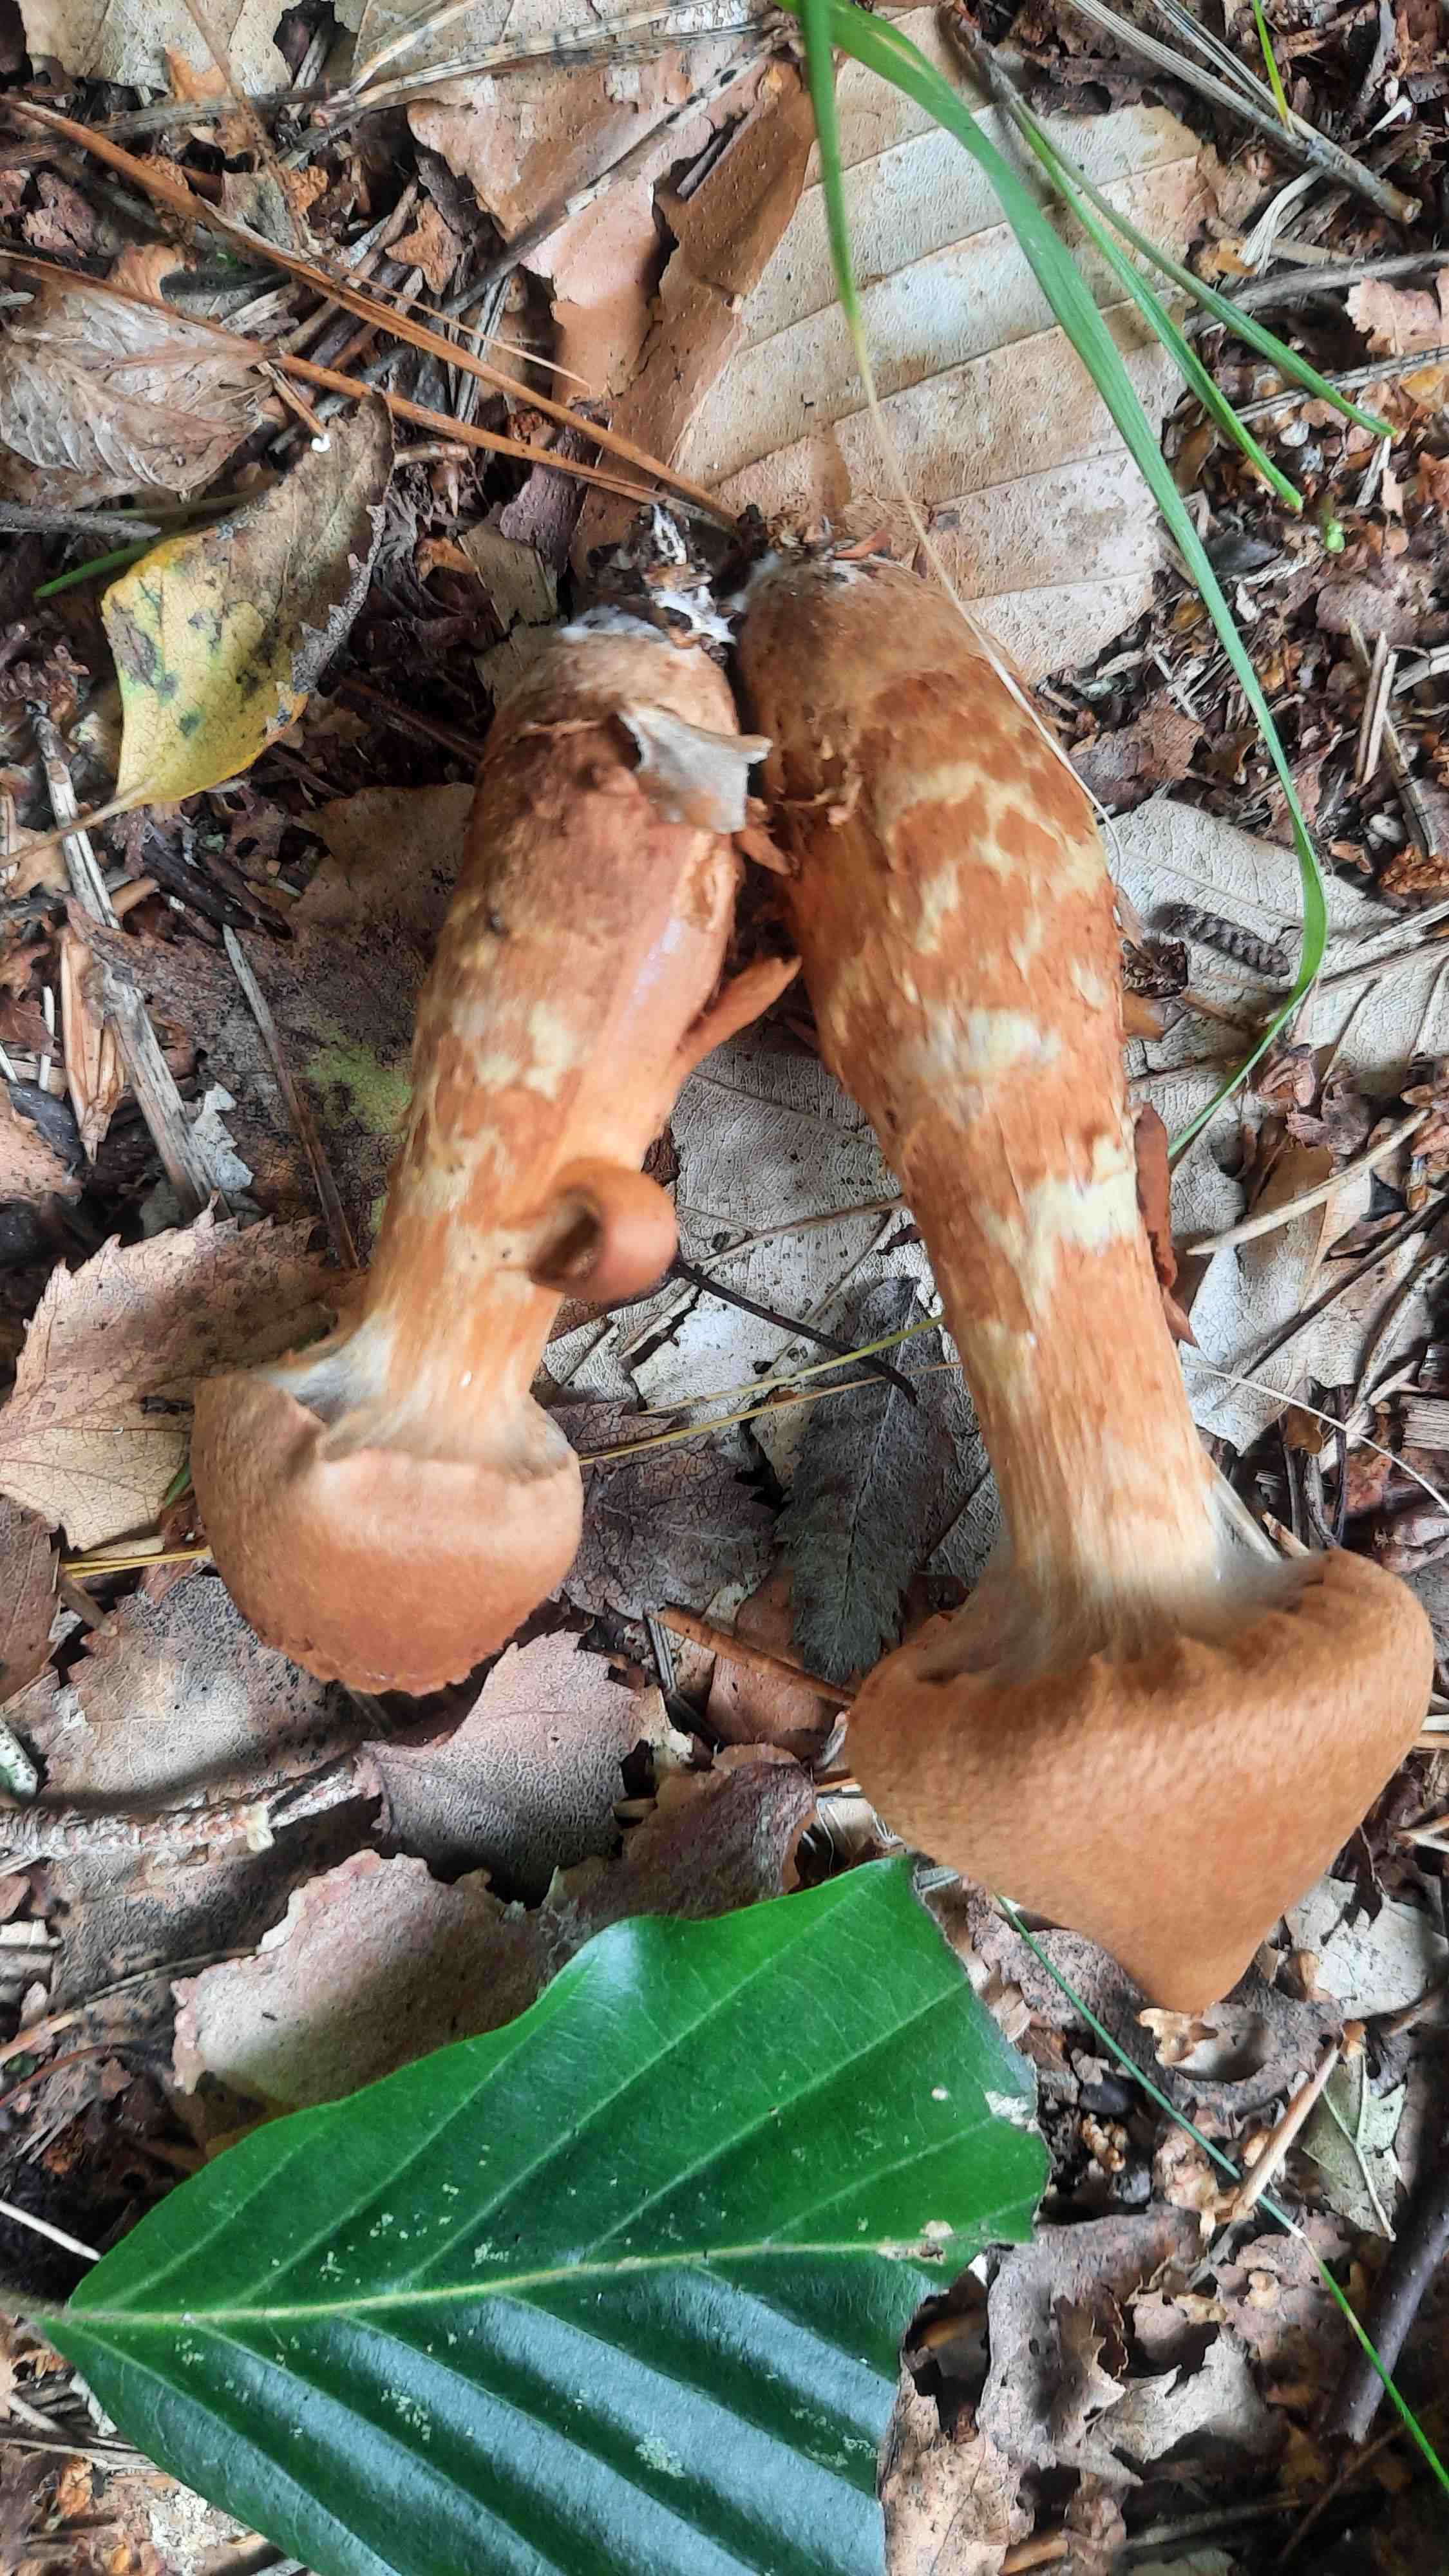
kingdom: Fungi
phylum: Basidiomycota
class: Agaricomycetes
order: Agaricales
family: Cortinariaceae
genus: Cortinarius
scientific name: Cortinarius rubellus
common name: puklet gift-slørhat
